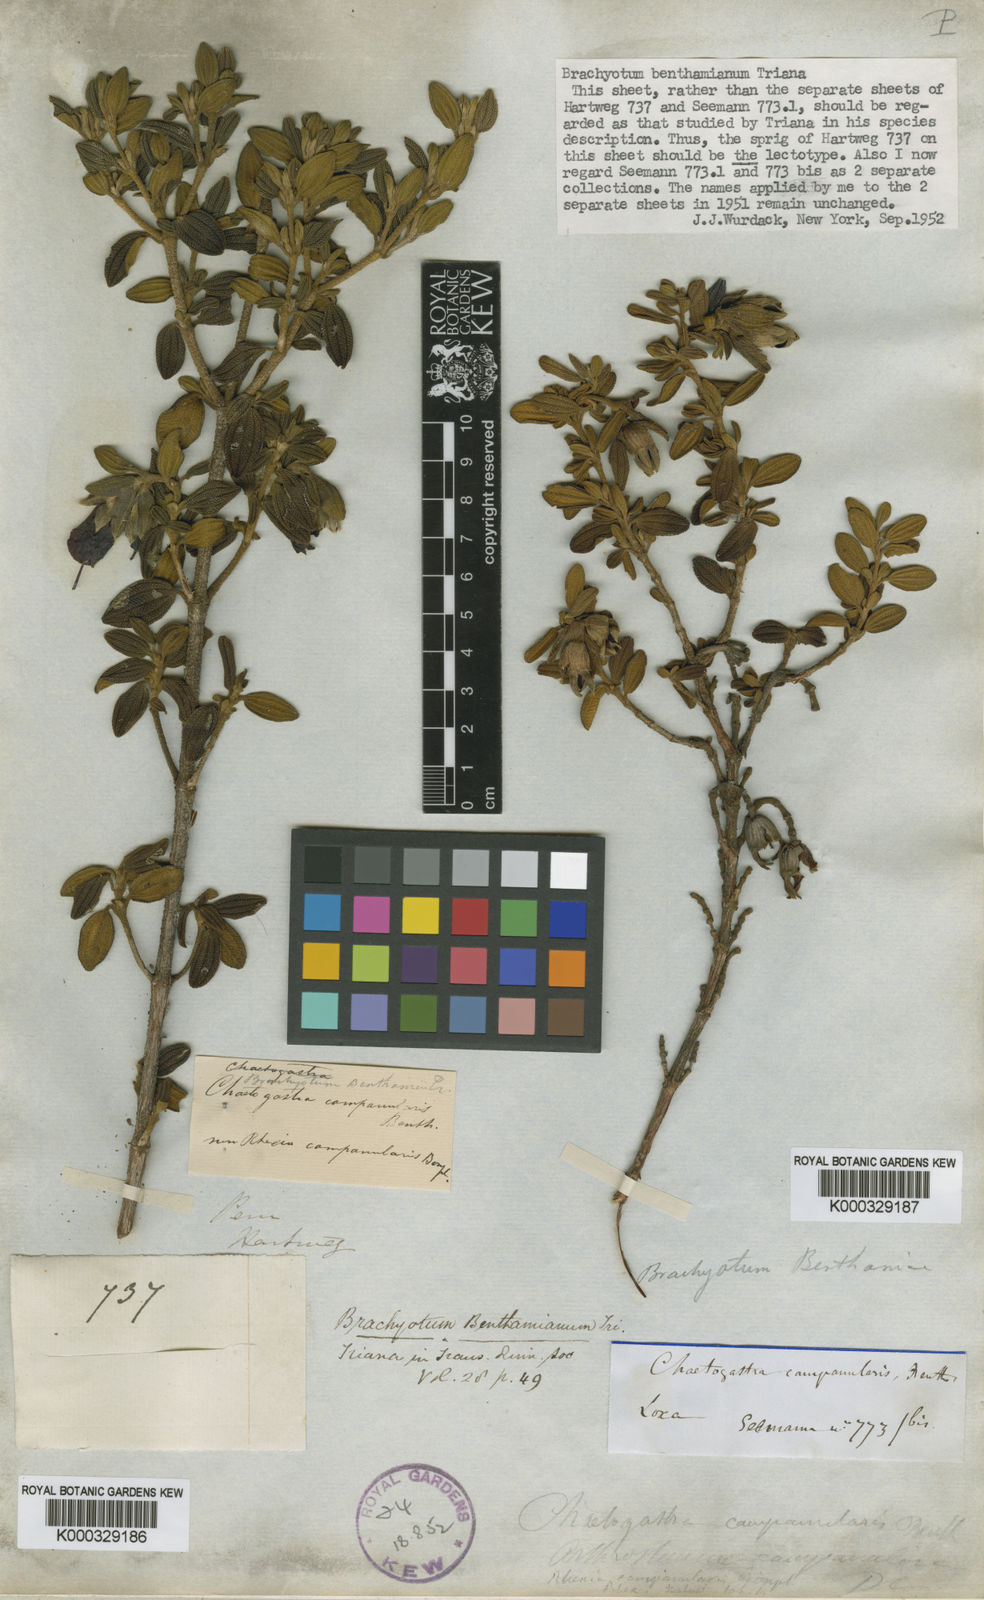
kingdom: Plantae
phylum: Tracheophyta
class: Magnoliopsida
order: Myrtales
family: Melastomataceae
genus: Brachyotum
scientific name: Brachyotum benthamianum
